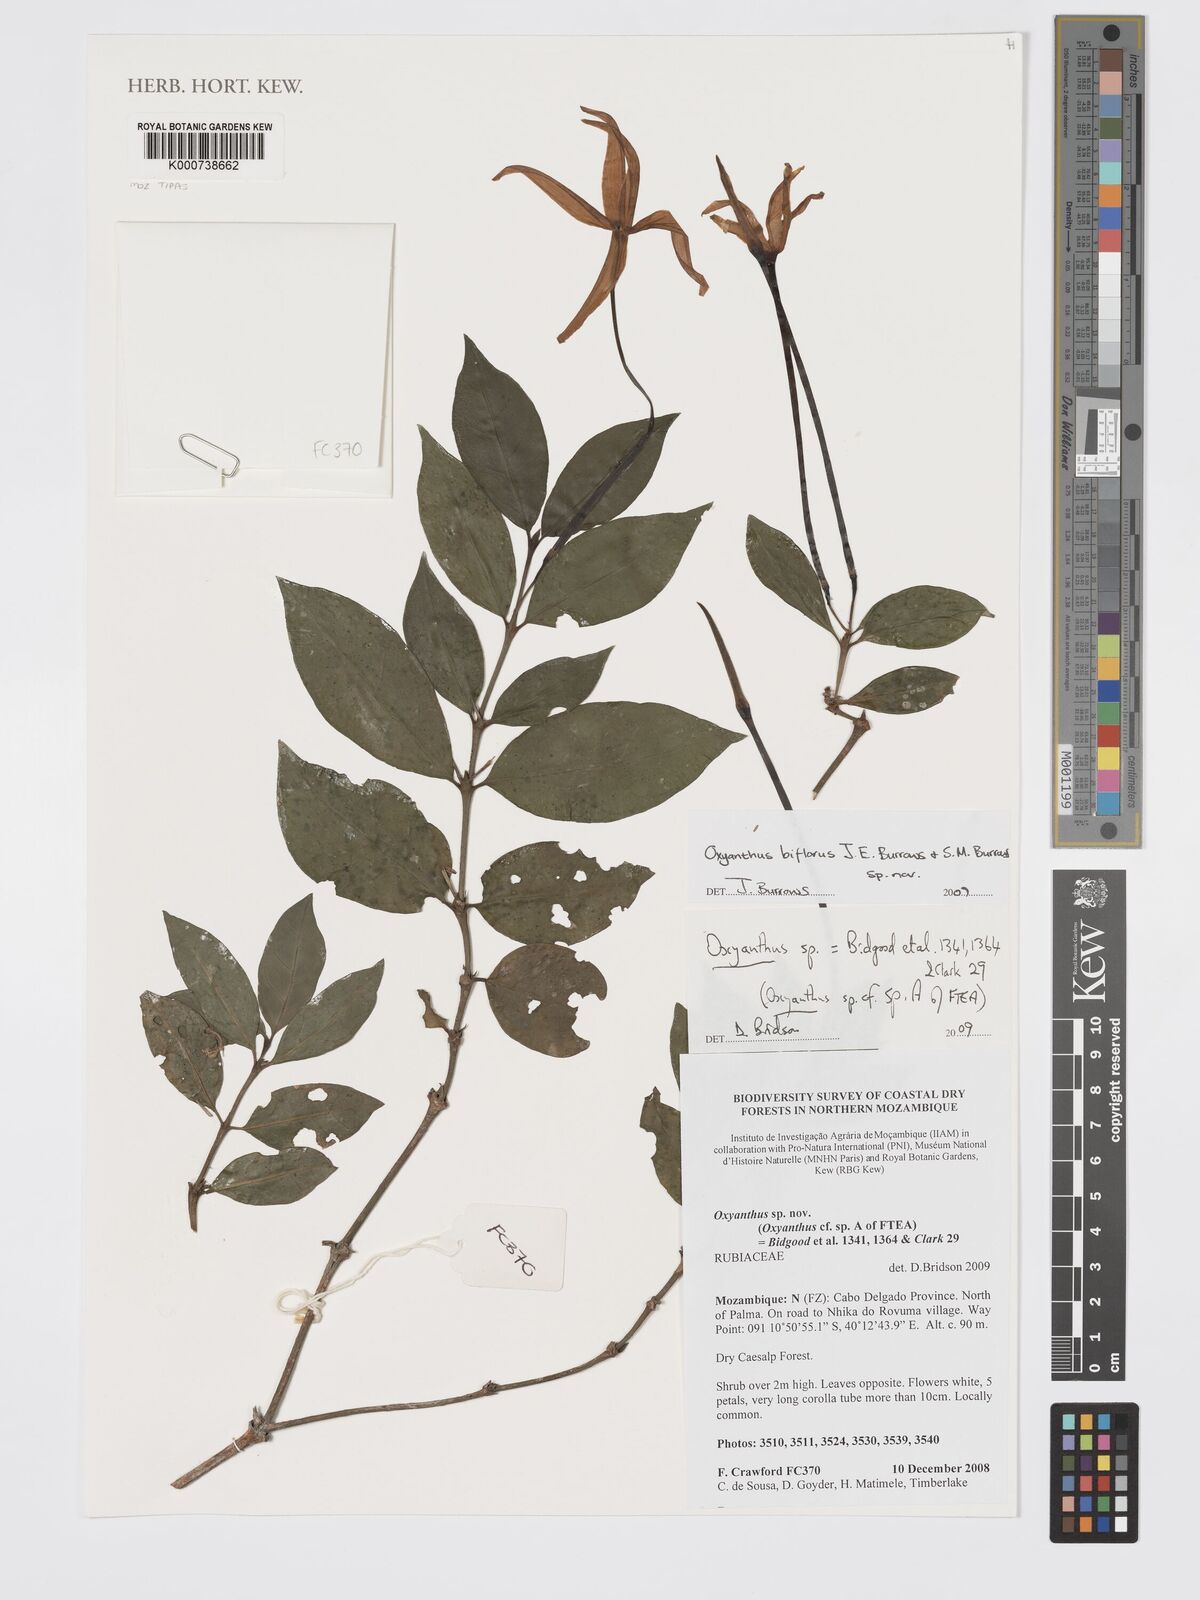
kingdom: Plantae
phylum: Tracheophyta
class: Magnoliopsida
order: Gentianales
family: Rubiaceae
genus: Oxyanthus
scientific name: Oxyanthus biflorus
